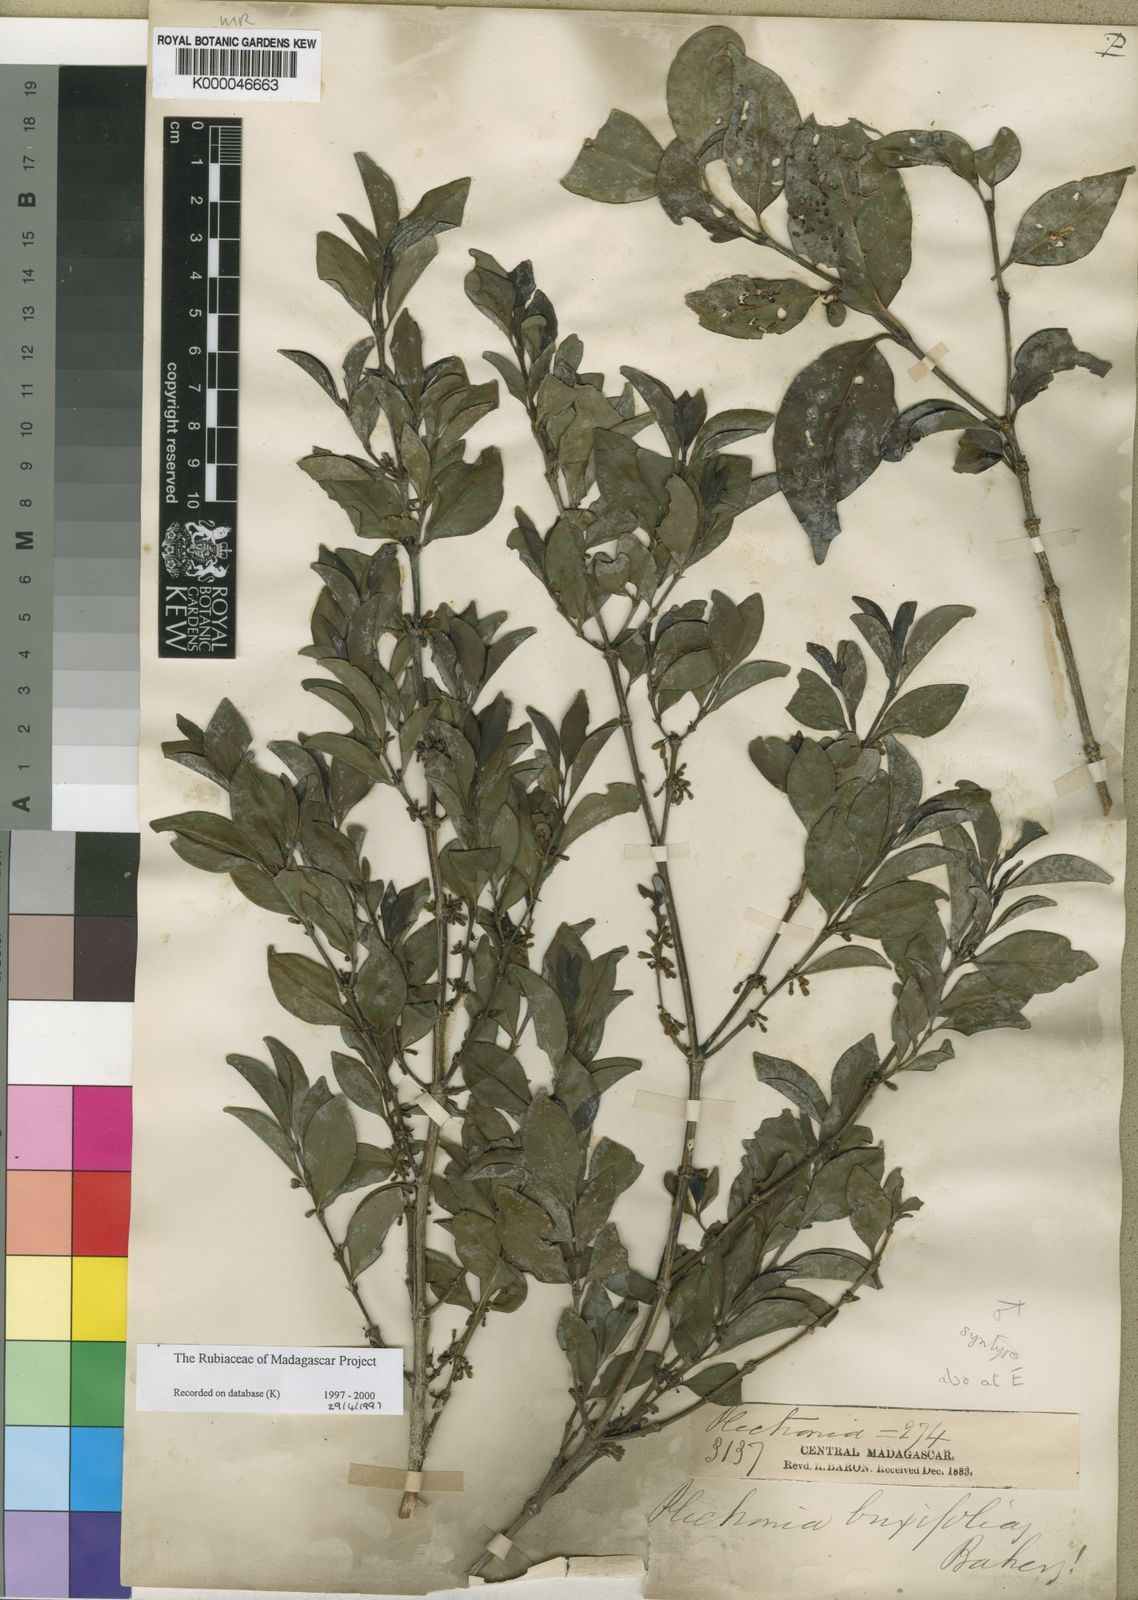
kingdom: Plantae
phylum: Tracheophyta
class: Magnoliopsida
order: Gentianales
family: Rubiaceae
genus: Peponidium
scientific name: Peponidium buxifolium
